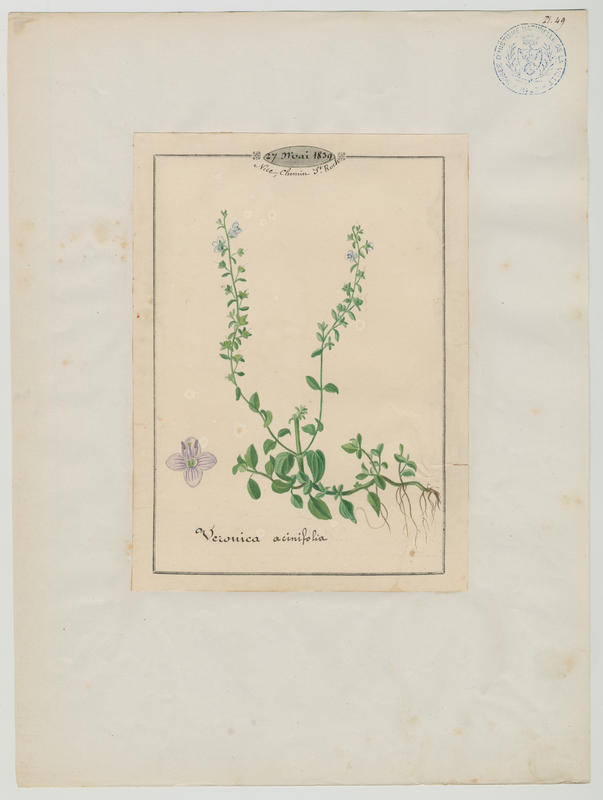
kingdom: Plantae
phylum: Tracheophyta
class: Magnoliopsida
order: Lamiales
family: Plantaginaceae
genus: Veronica
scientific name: Veronica acinifolia
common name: French speedwell
